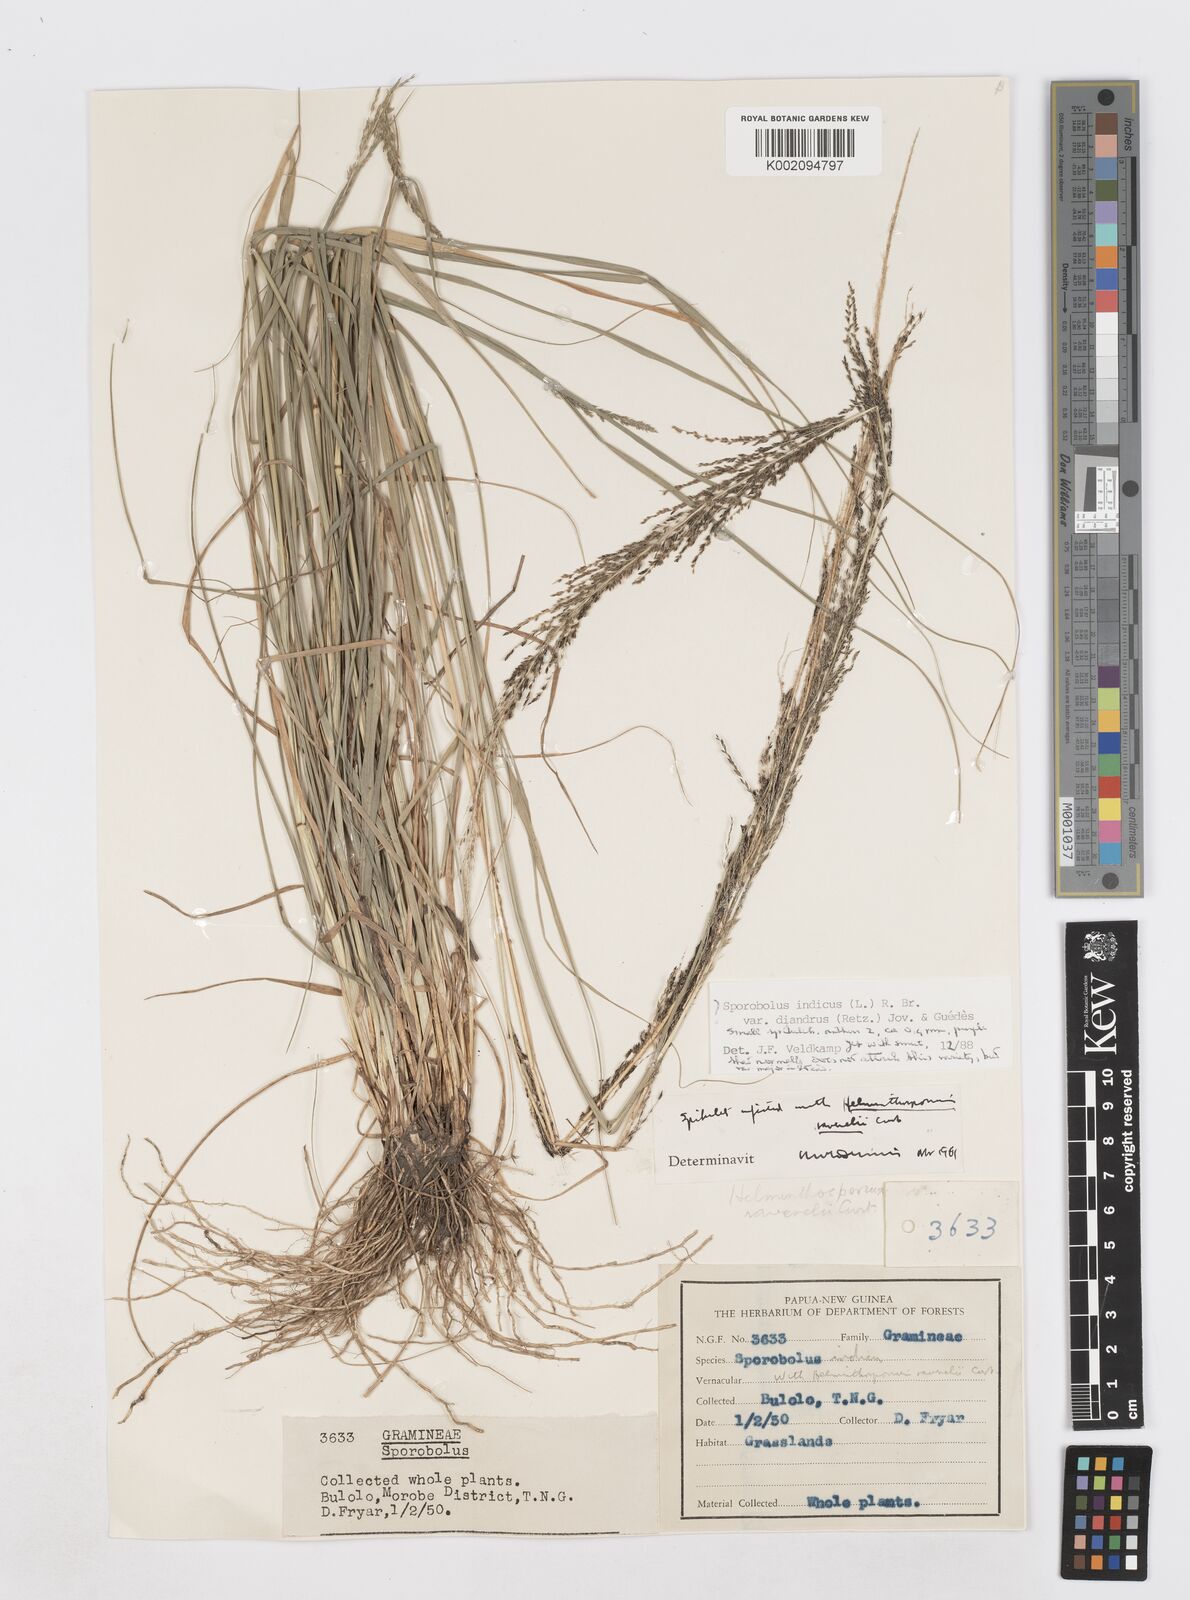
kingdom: Plantae
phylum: Tracheophyta
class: Liliopsida
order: Poales
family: Poaceae
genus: Sporobolus
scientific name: Sporobolus diandrus
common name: Tussock dropseed
